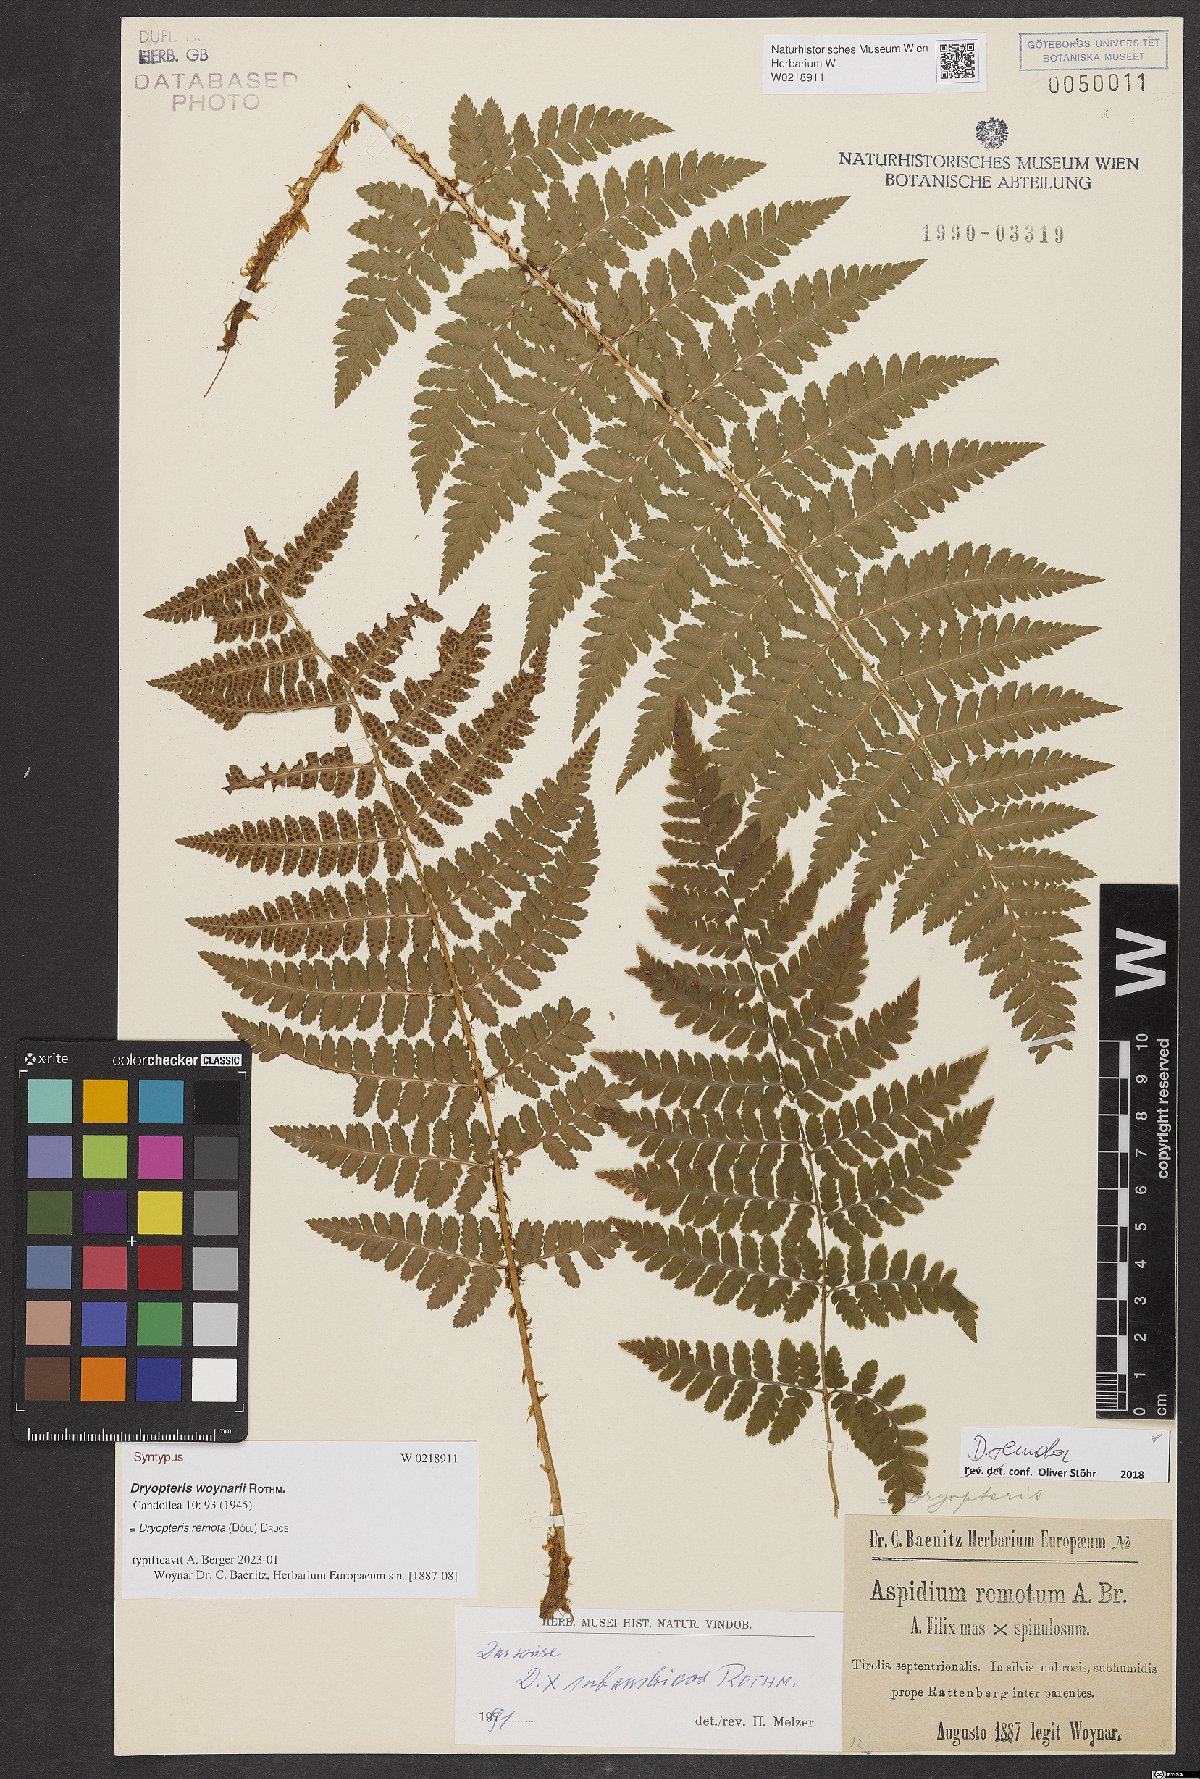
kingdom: Plantae
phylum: Tracheophyta
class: Polypodiopsida
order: Polypodiales
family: Dryopteridaceae
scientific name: Dryopteridaceae
